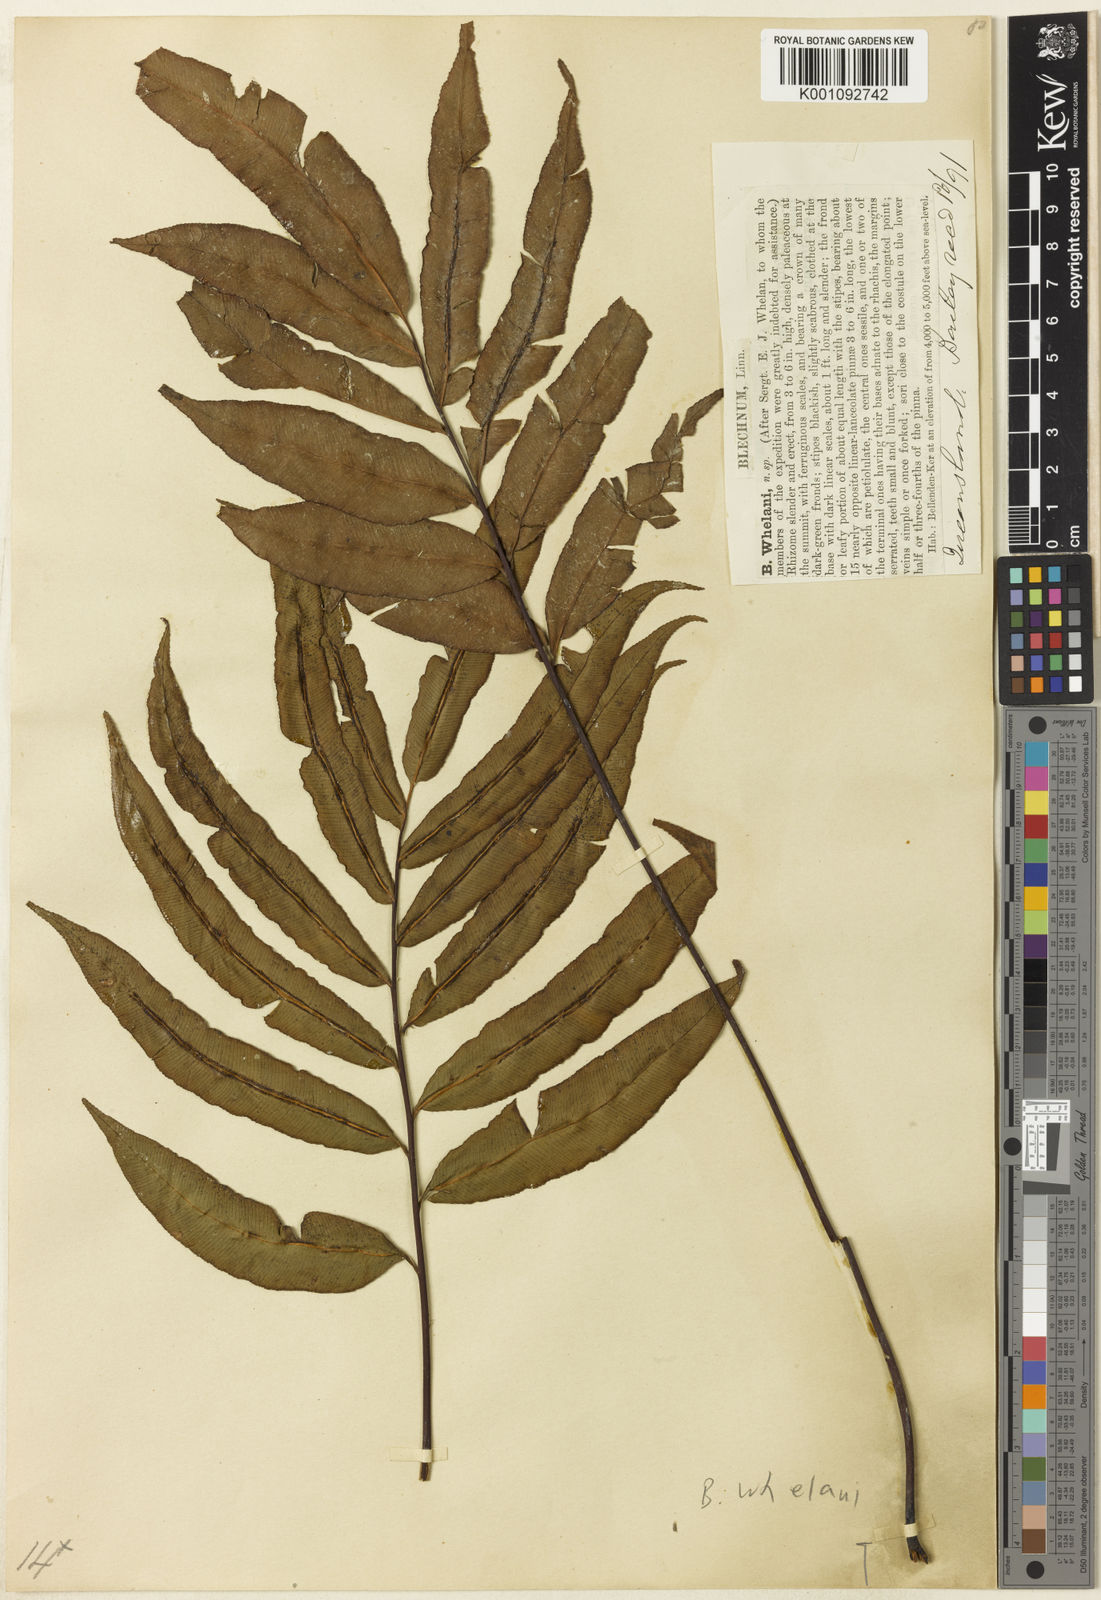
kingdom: Plantae
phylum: Tracheophyta
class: Polypodiopsida
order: Polypodiales
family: Blechnaceae
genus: Oceaniopteris
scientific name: Oceaniopteris whelanii
